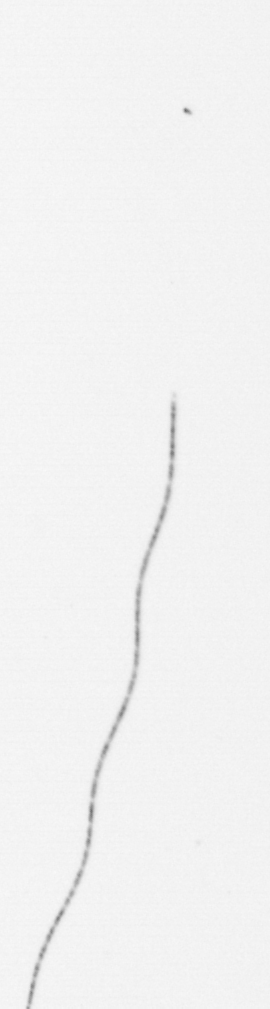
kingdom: Chromista
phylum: Ochrophyta
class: Bacillariophyceae
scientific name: Bacillariophyceae
